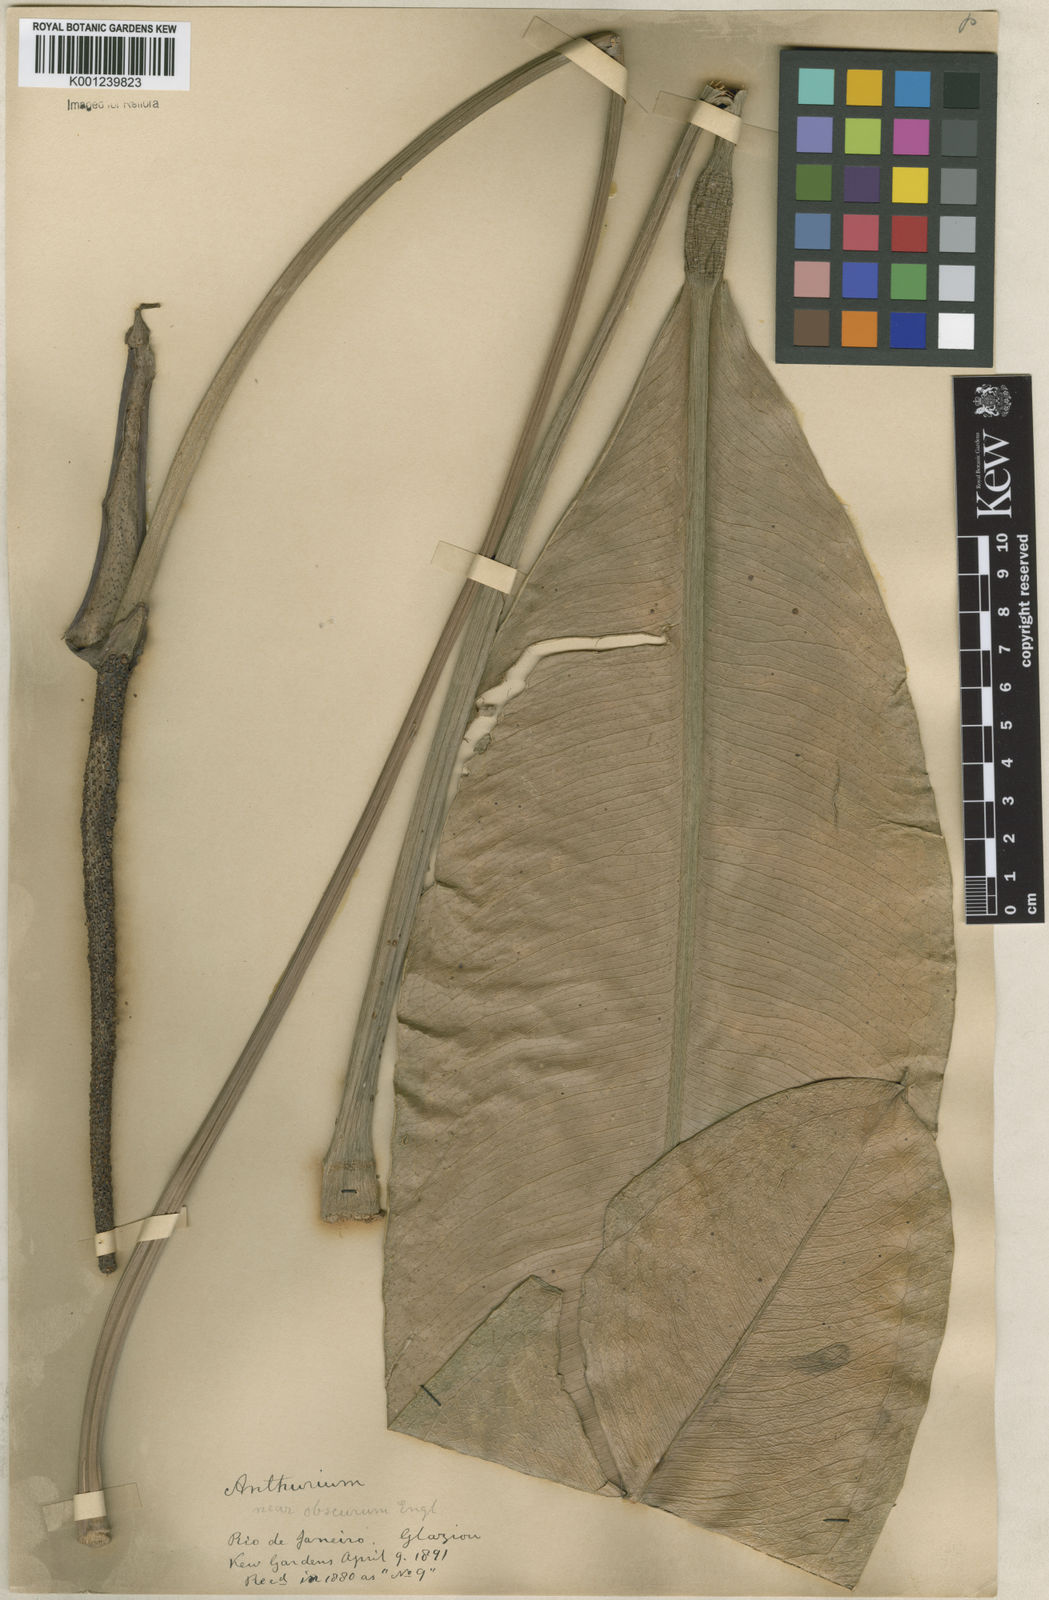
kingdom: Plantae
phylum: Tracheophyta
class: Liliopsida
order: Alismatales
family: Araceae
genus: Anthurium
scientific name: Anthurium
